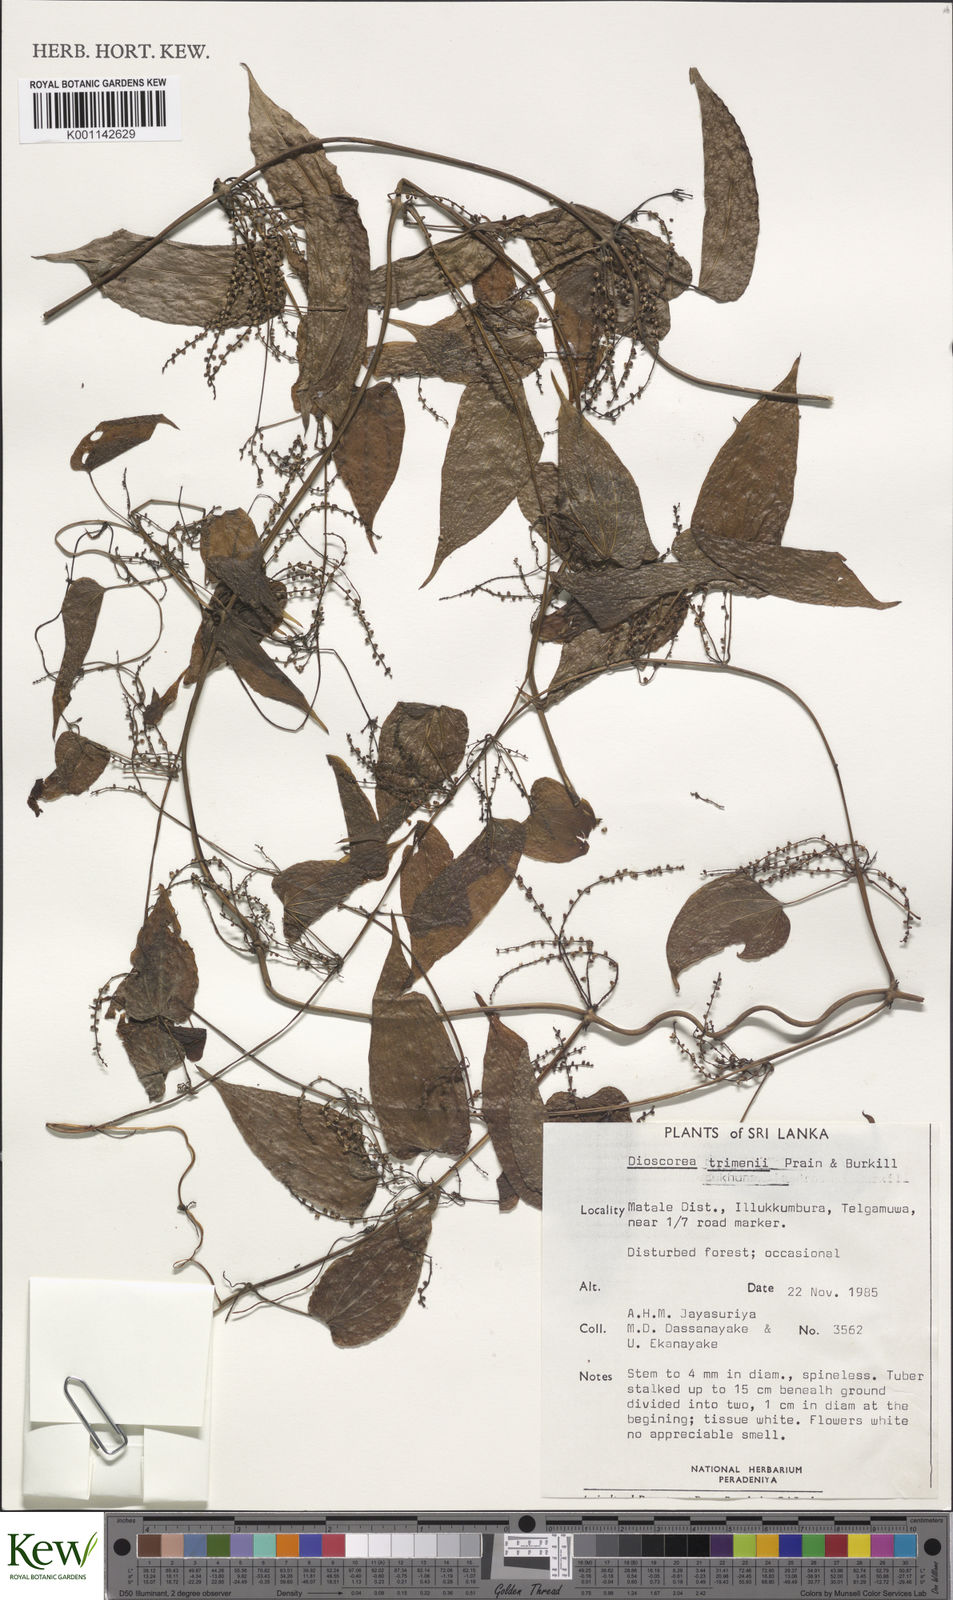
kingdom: Plantae
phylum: Tracheophyta
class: Liliopsida
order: Dioscoreales
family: Dioscoreaceae
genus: Dioscorea
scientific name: Dioscorea trimenii
